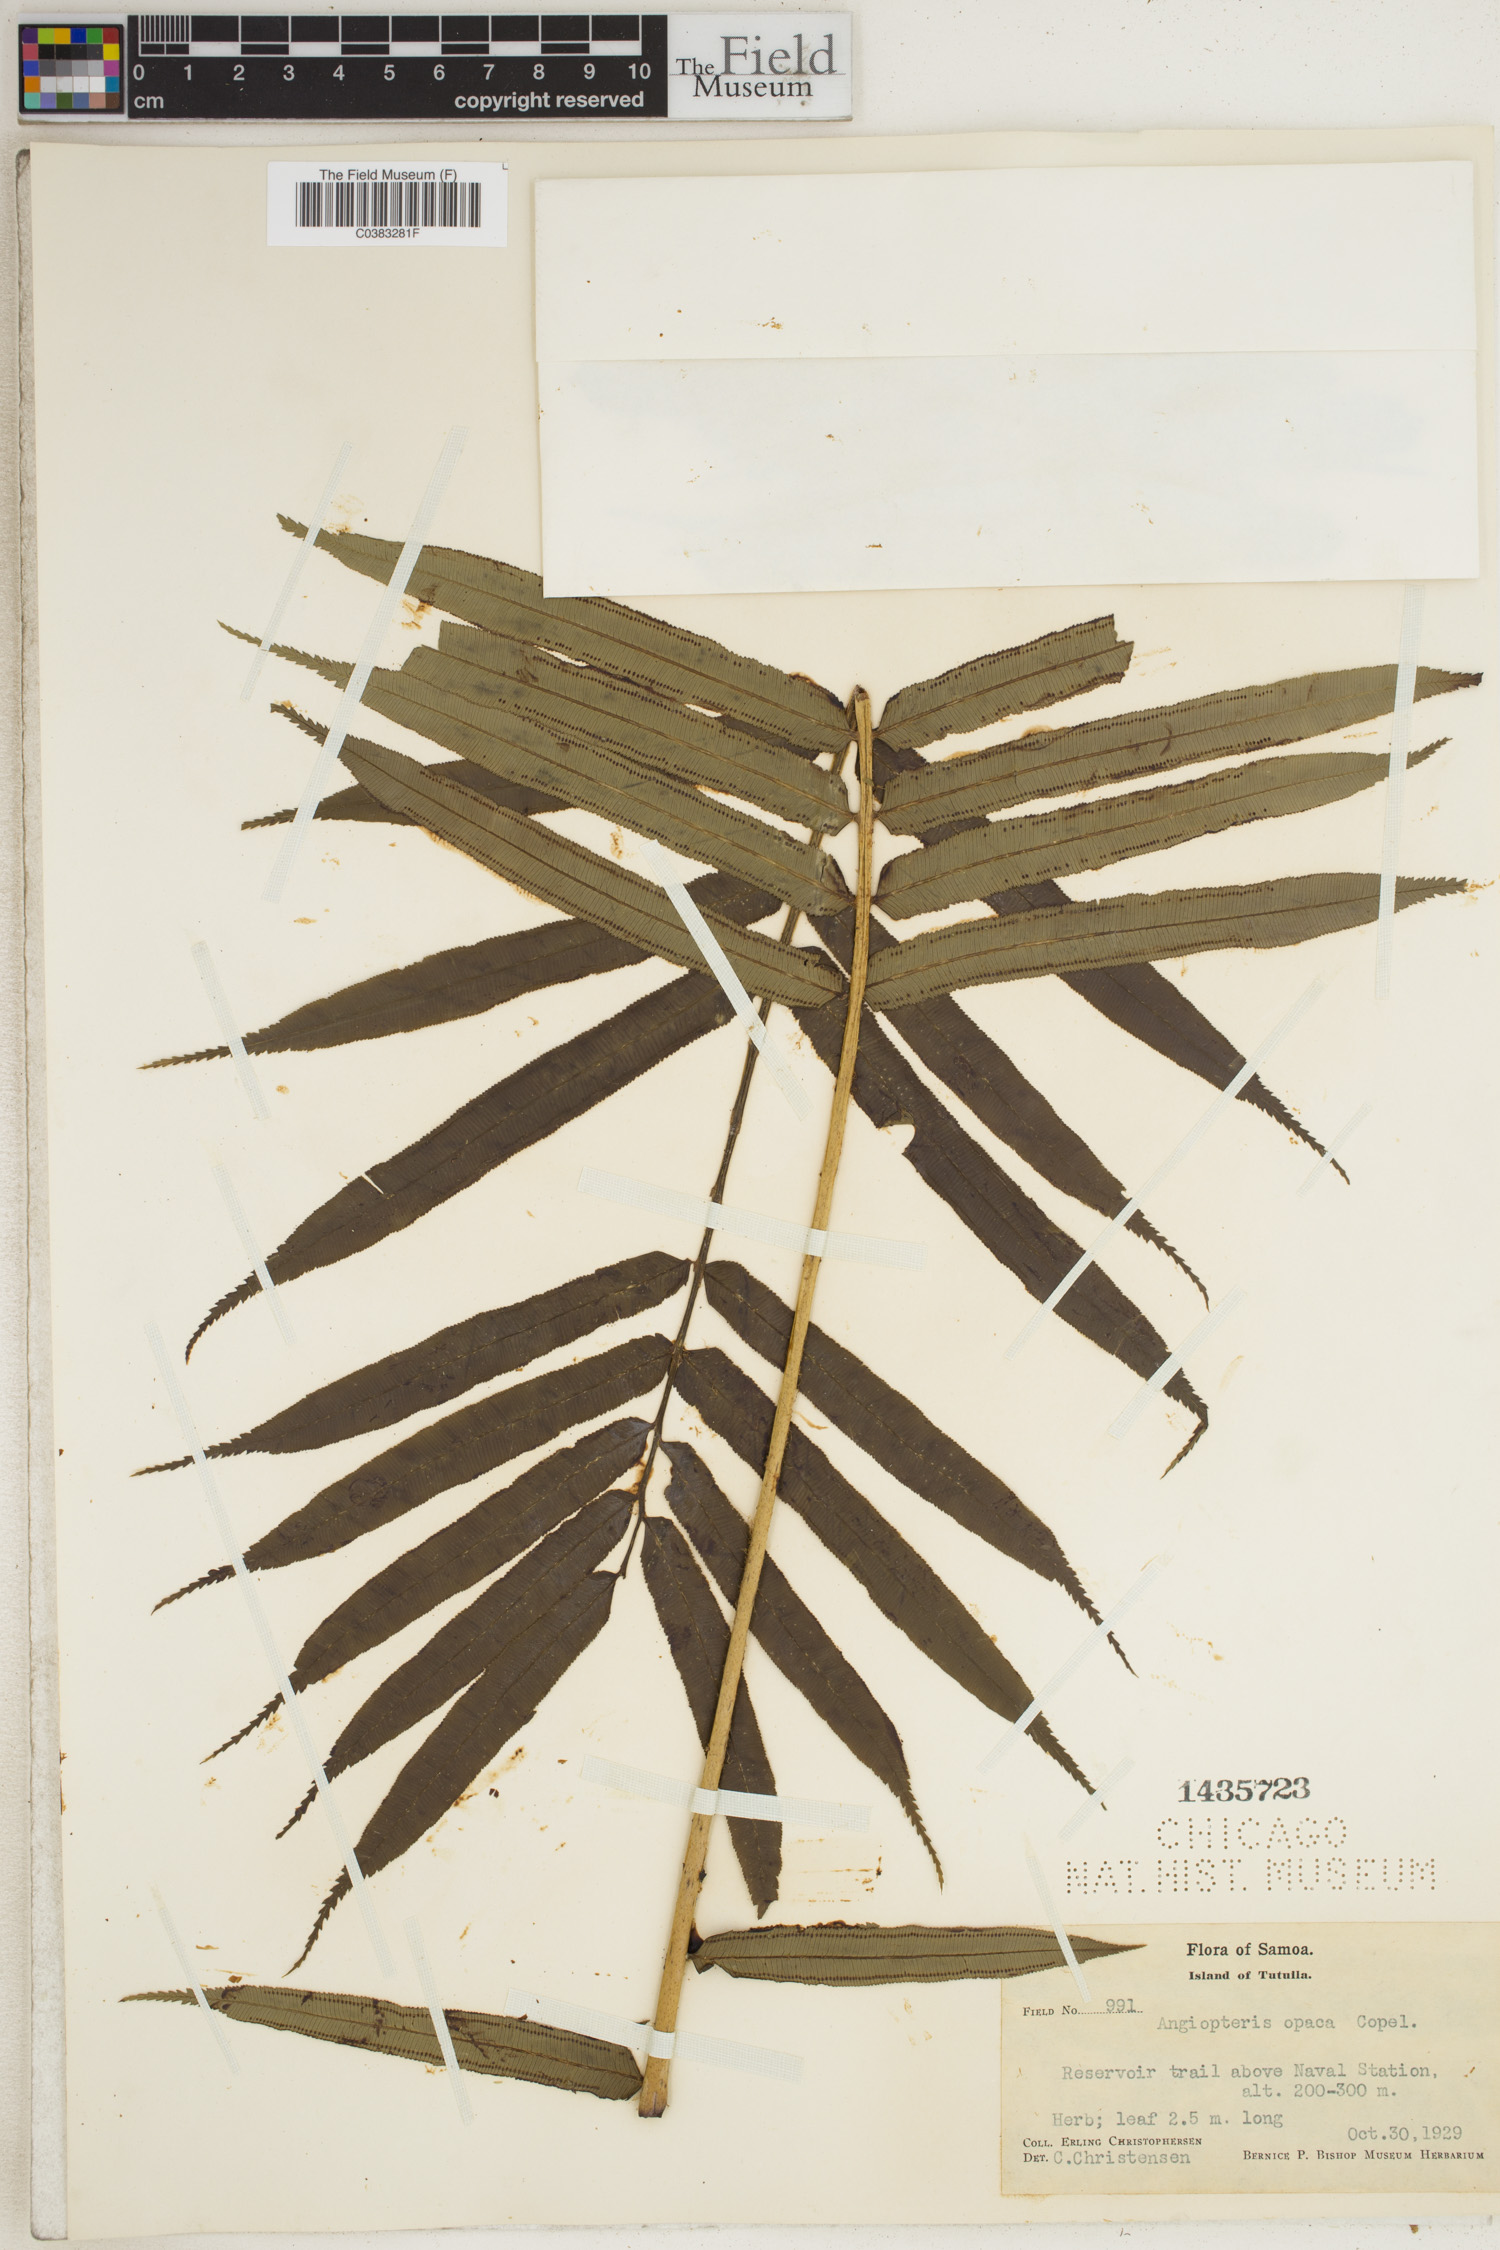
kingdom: Plantae
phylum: Tracheophyta
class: Polypodiopsida
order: Marattiales
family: Marattiaceae
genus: Angiopteris
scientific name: Angiopteris opaca
